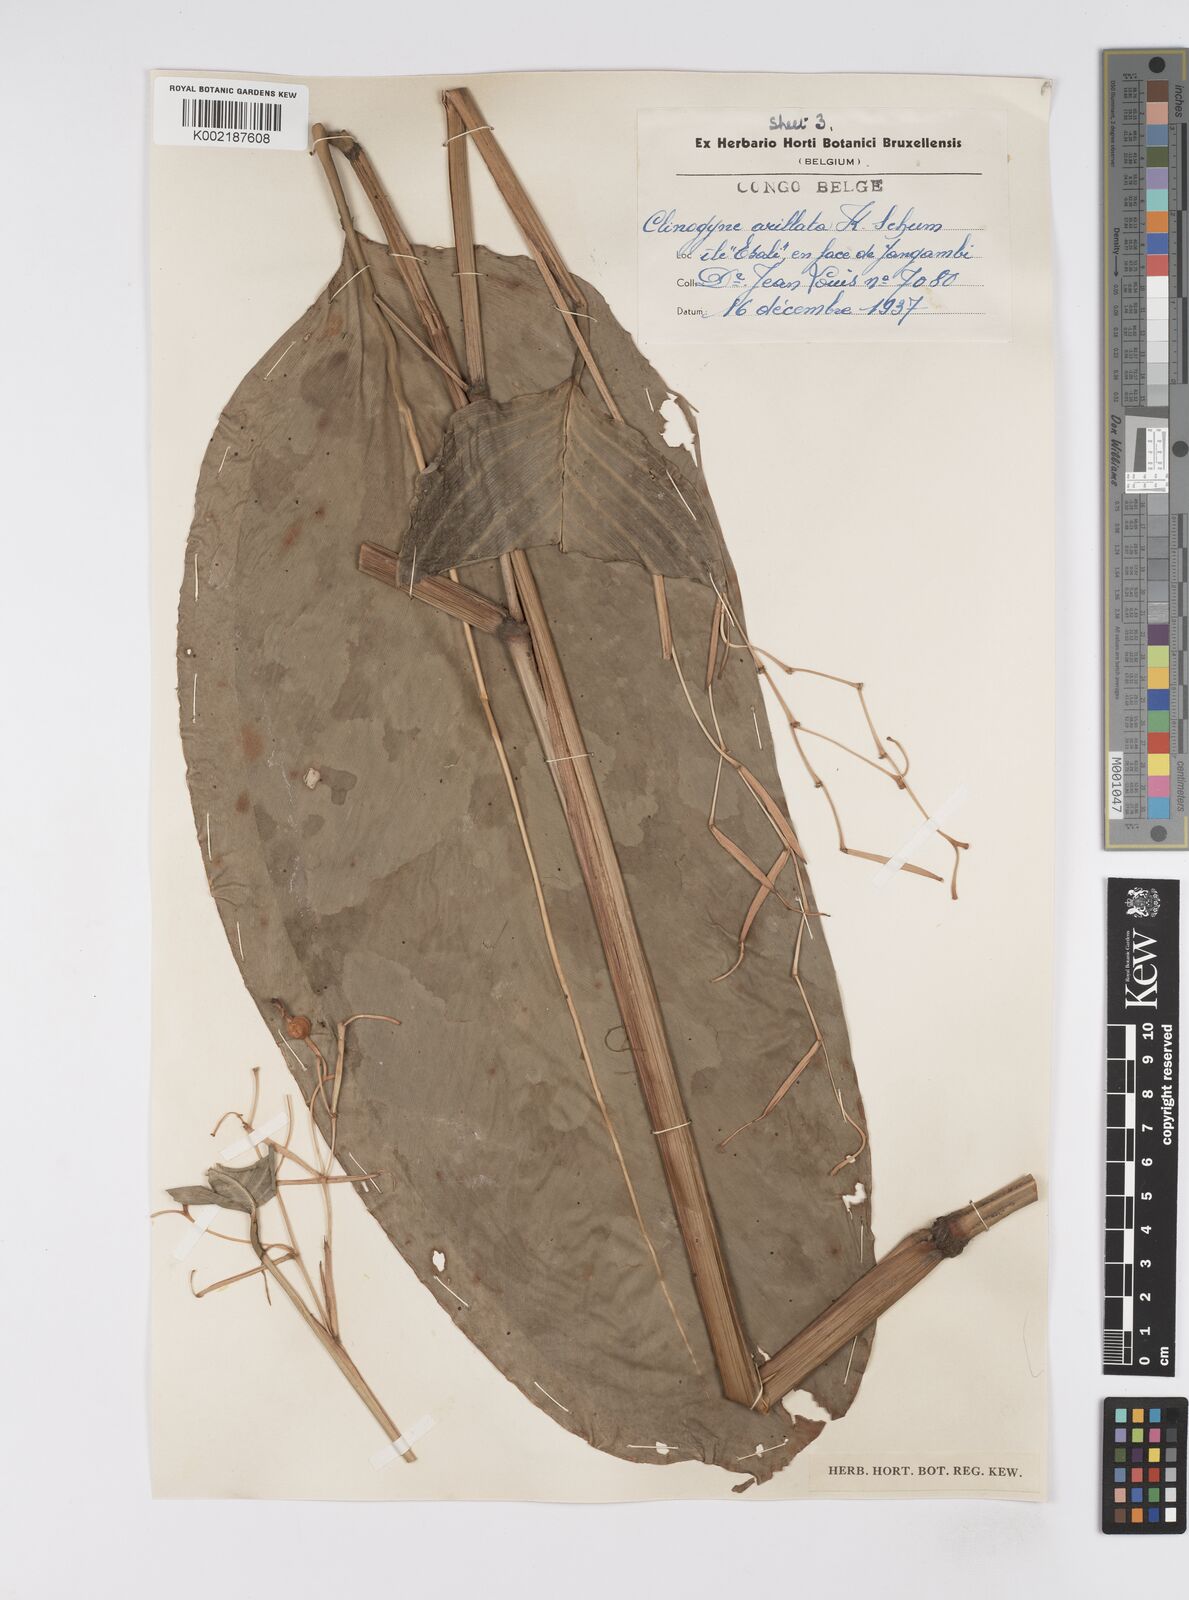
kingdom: Plantae
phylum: Tracheophyta
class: Liliopsida
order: Zingiberales
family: Marantaceae
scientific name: Marantaceae
